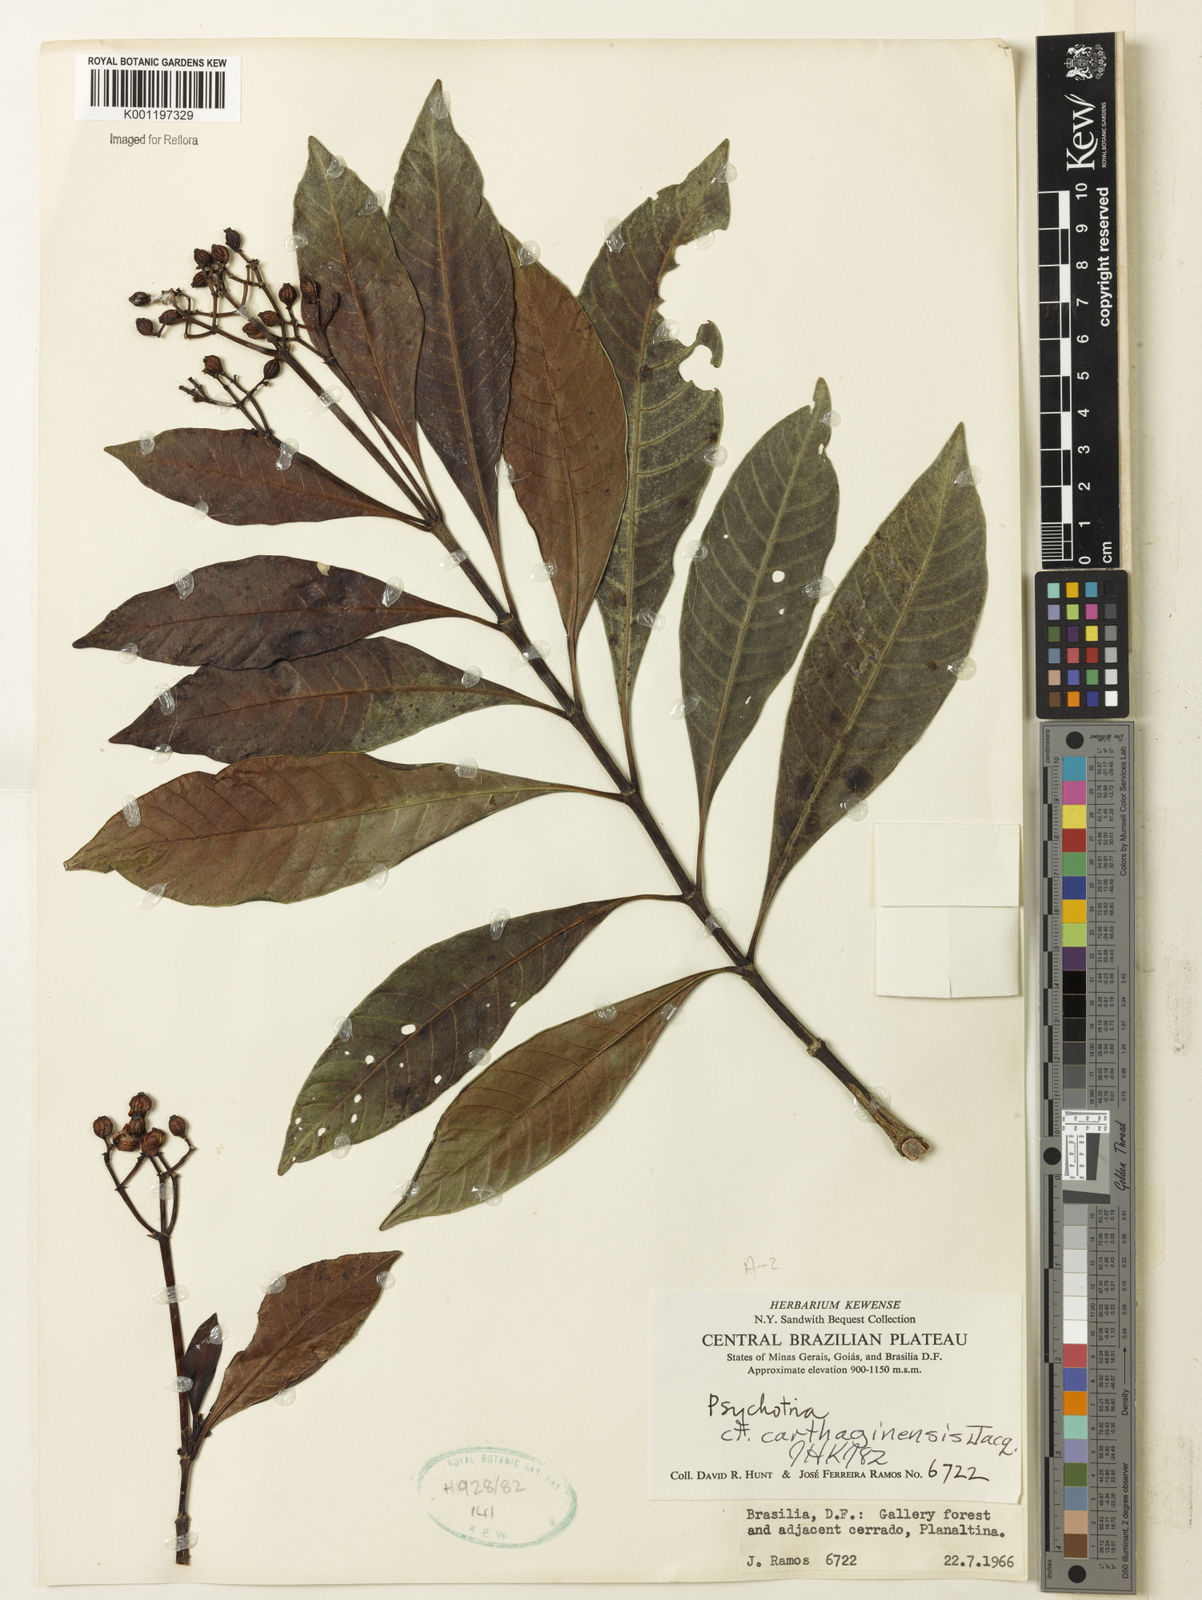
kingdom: Plantae
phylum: Tracheophyta
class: Magnoliopsida
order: Gentianales
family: Rubiaceae
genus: Psychotria
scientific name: Psychotria anceps
